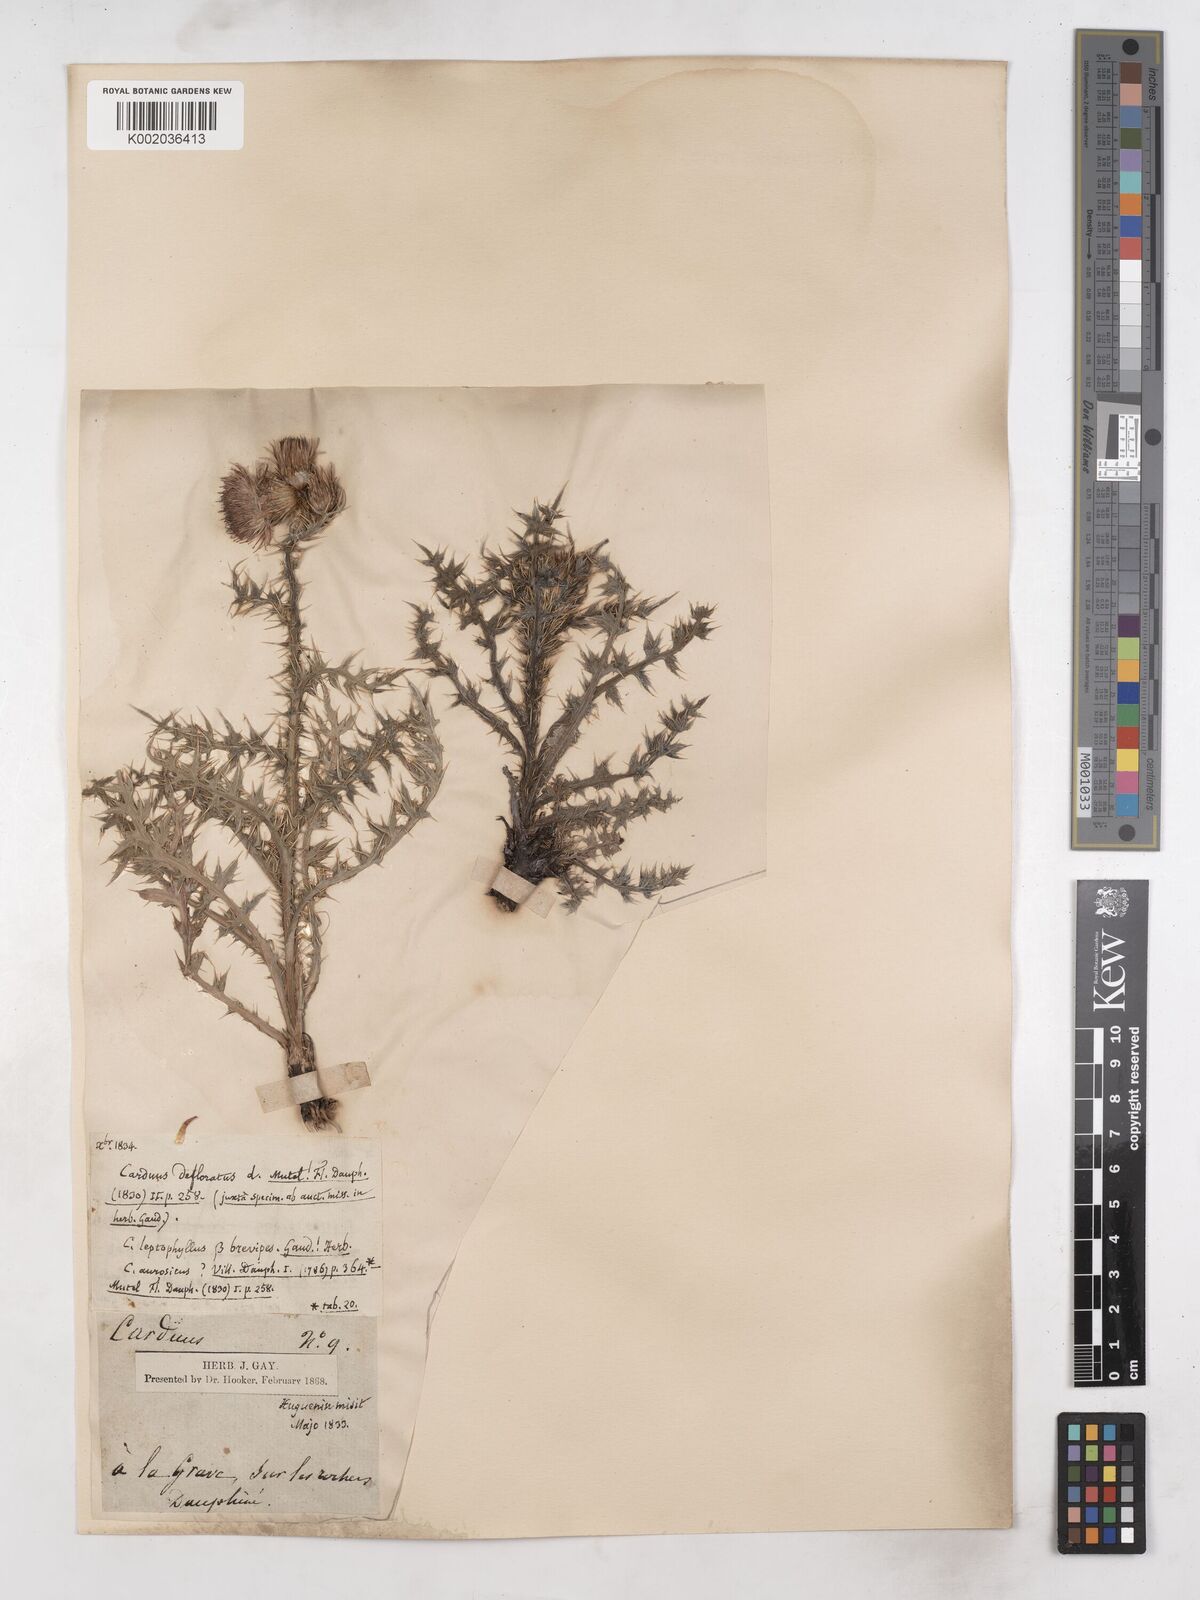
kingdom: Plantae
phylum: Tracheophyta
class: Magnoliopsida
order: Asterales
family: Asteraceae
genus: Carduus
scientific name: Carduus carlinifolius
